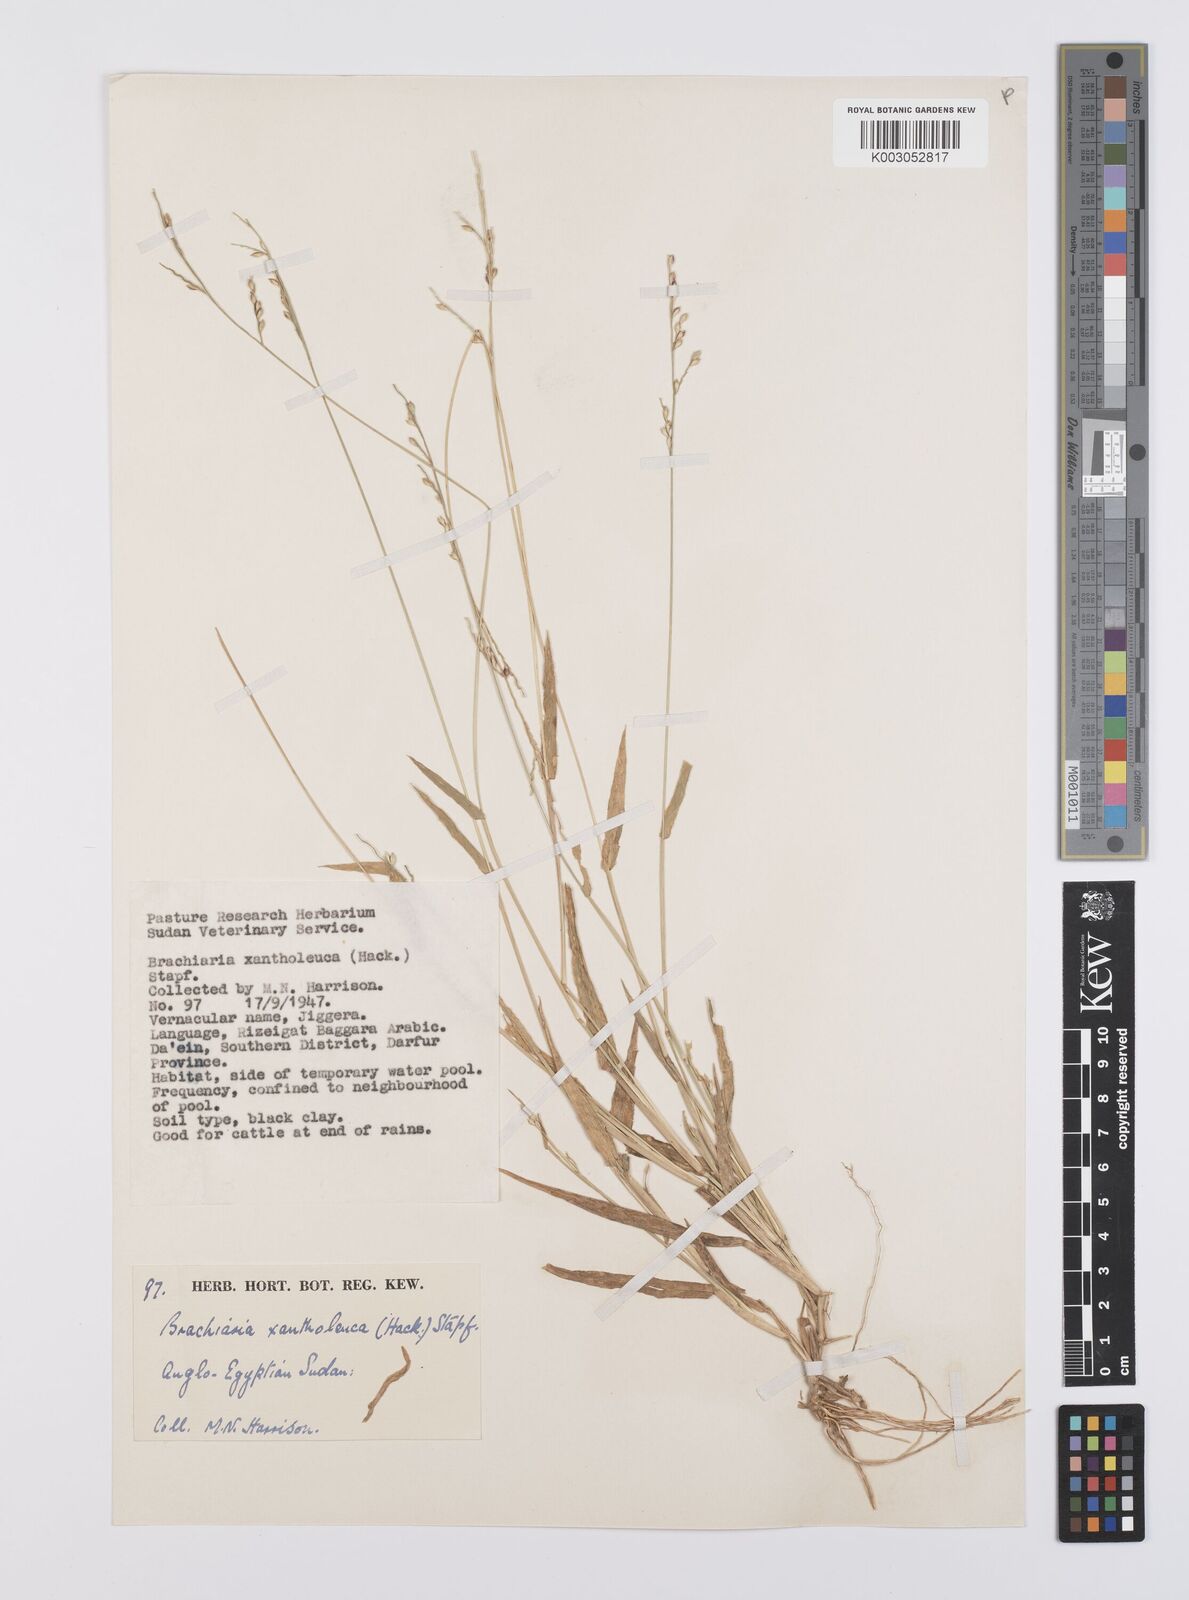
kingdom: Plantae
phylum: Tracheophyta
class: Liliopsida
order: Poales
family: Poaceae
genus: Urochloa
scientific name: Urochloa xantholeuca
